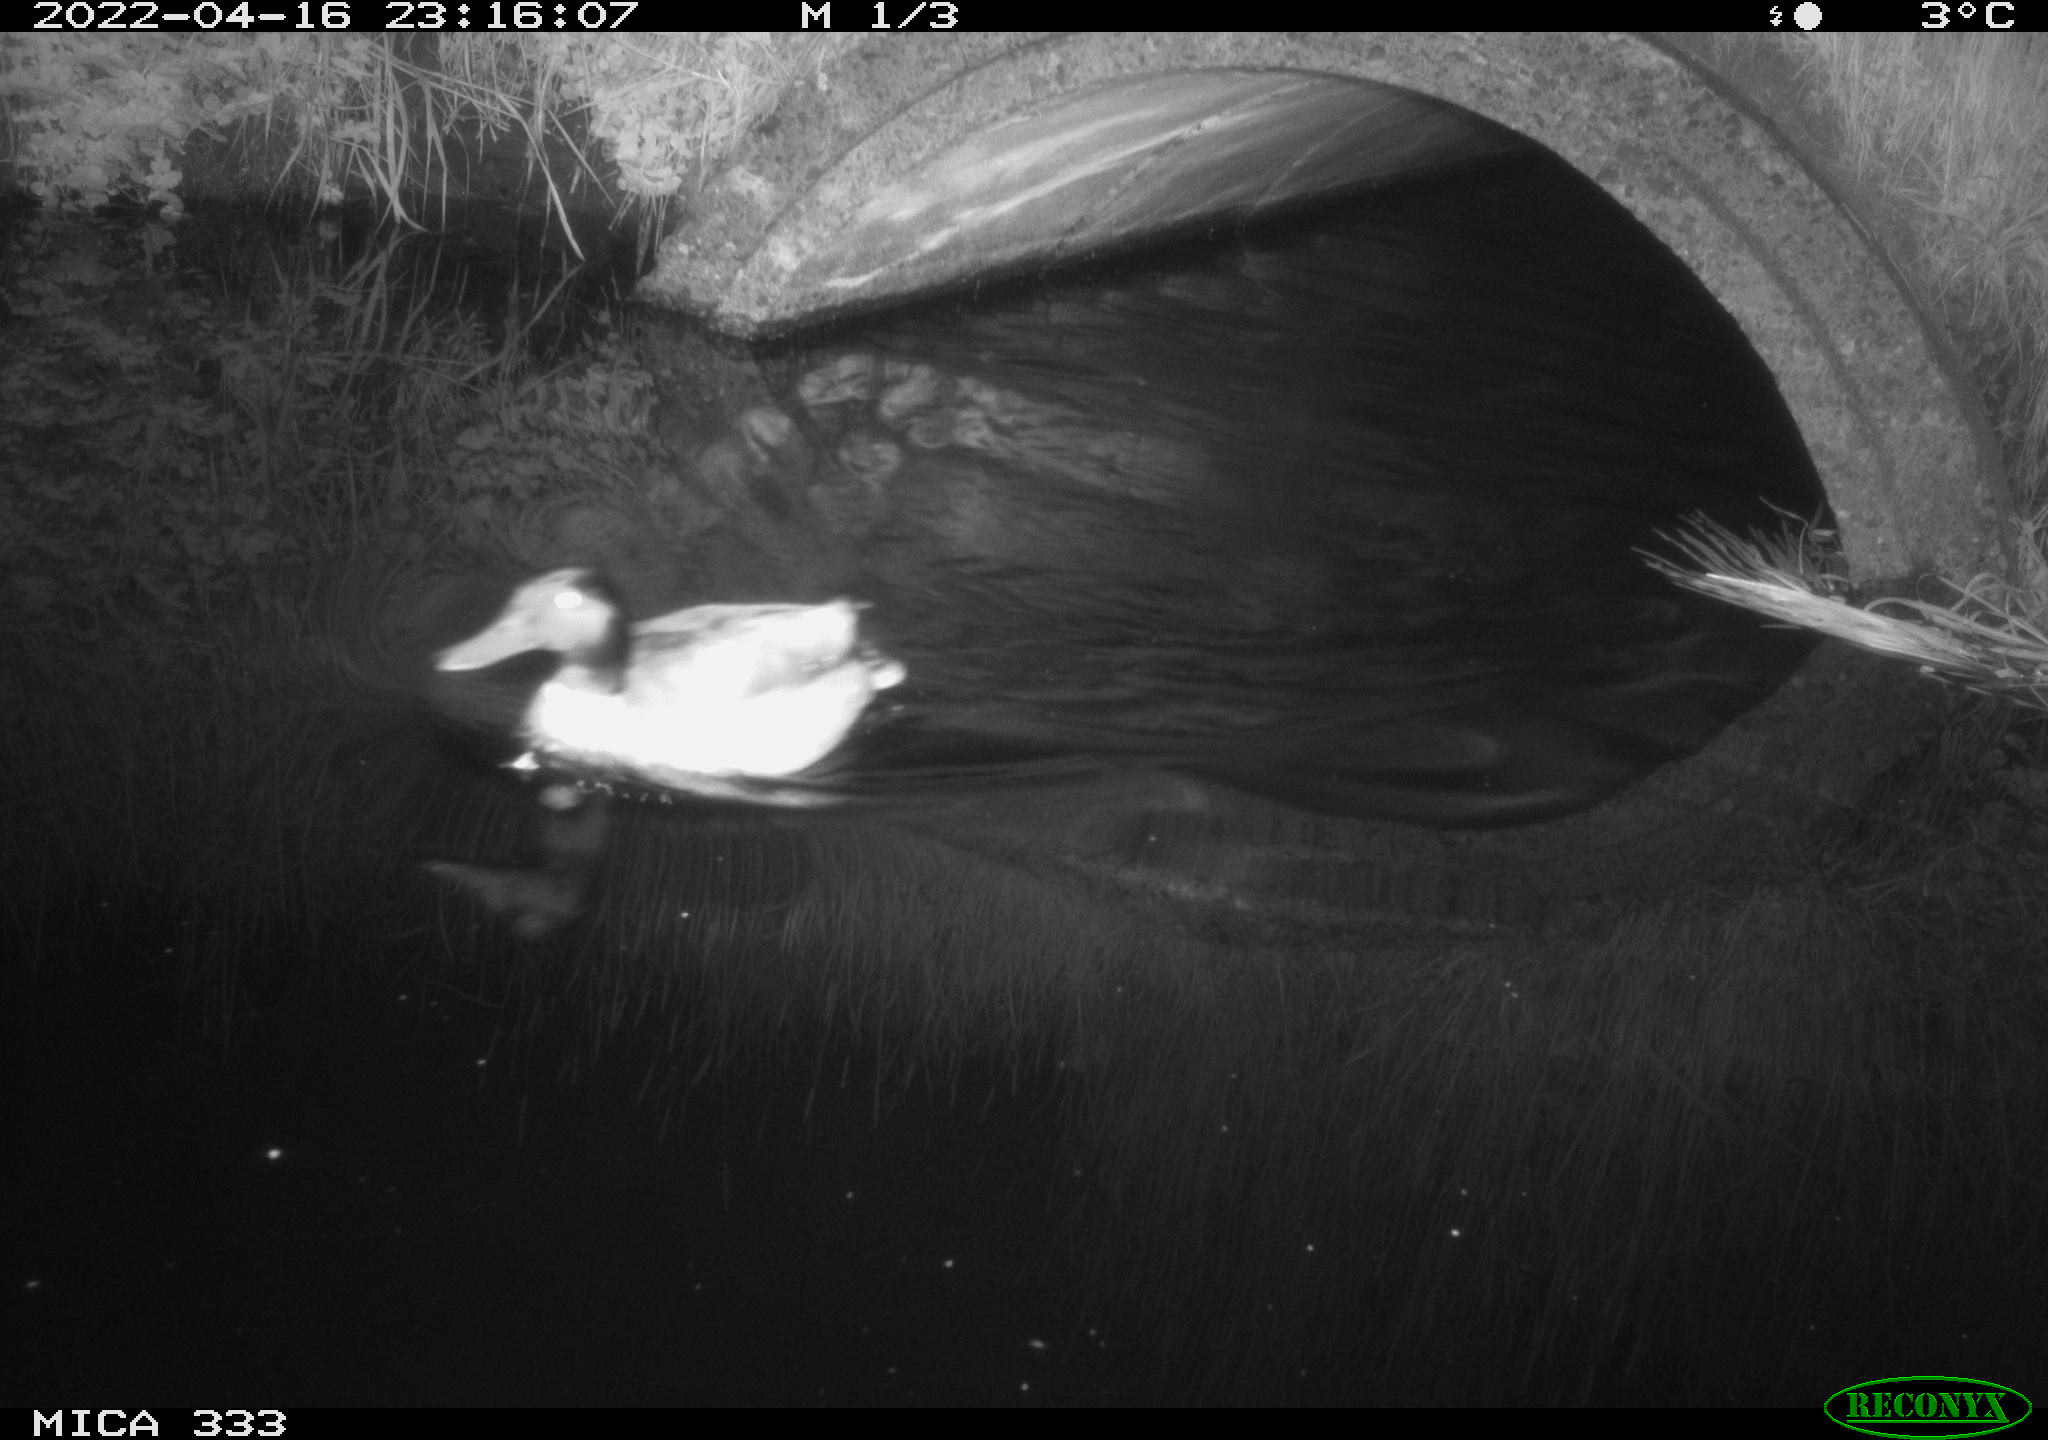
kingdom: Animalia
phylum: Chordata
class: Aves
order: Anseriformes
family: Anatidae
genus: Anas
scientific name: Anas platyrhynchos
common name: Mallard
